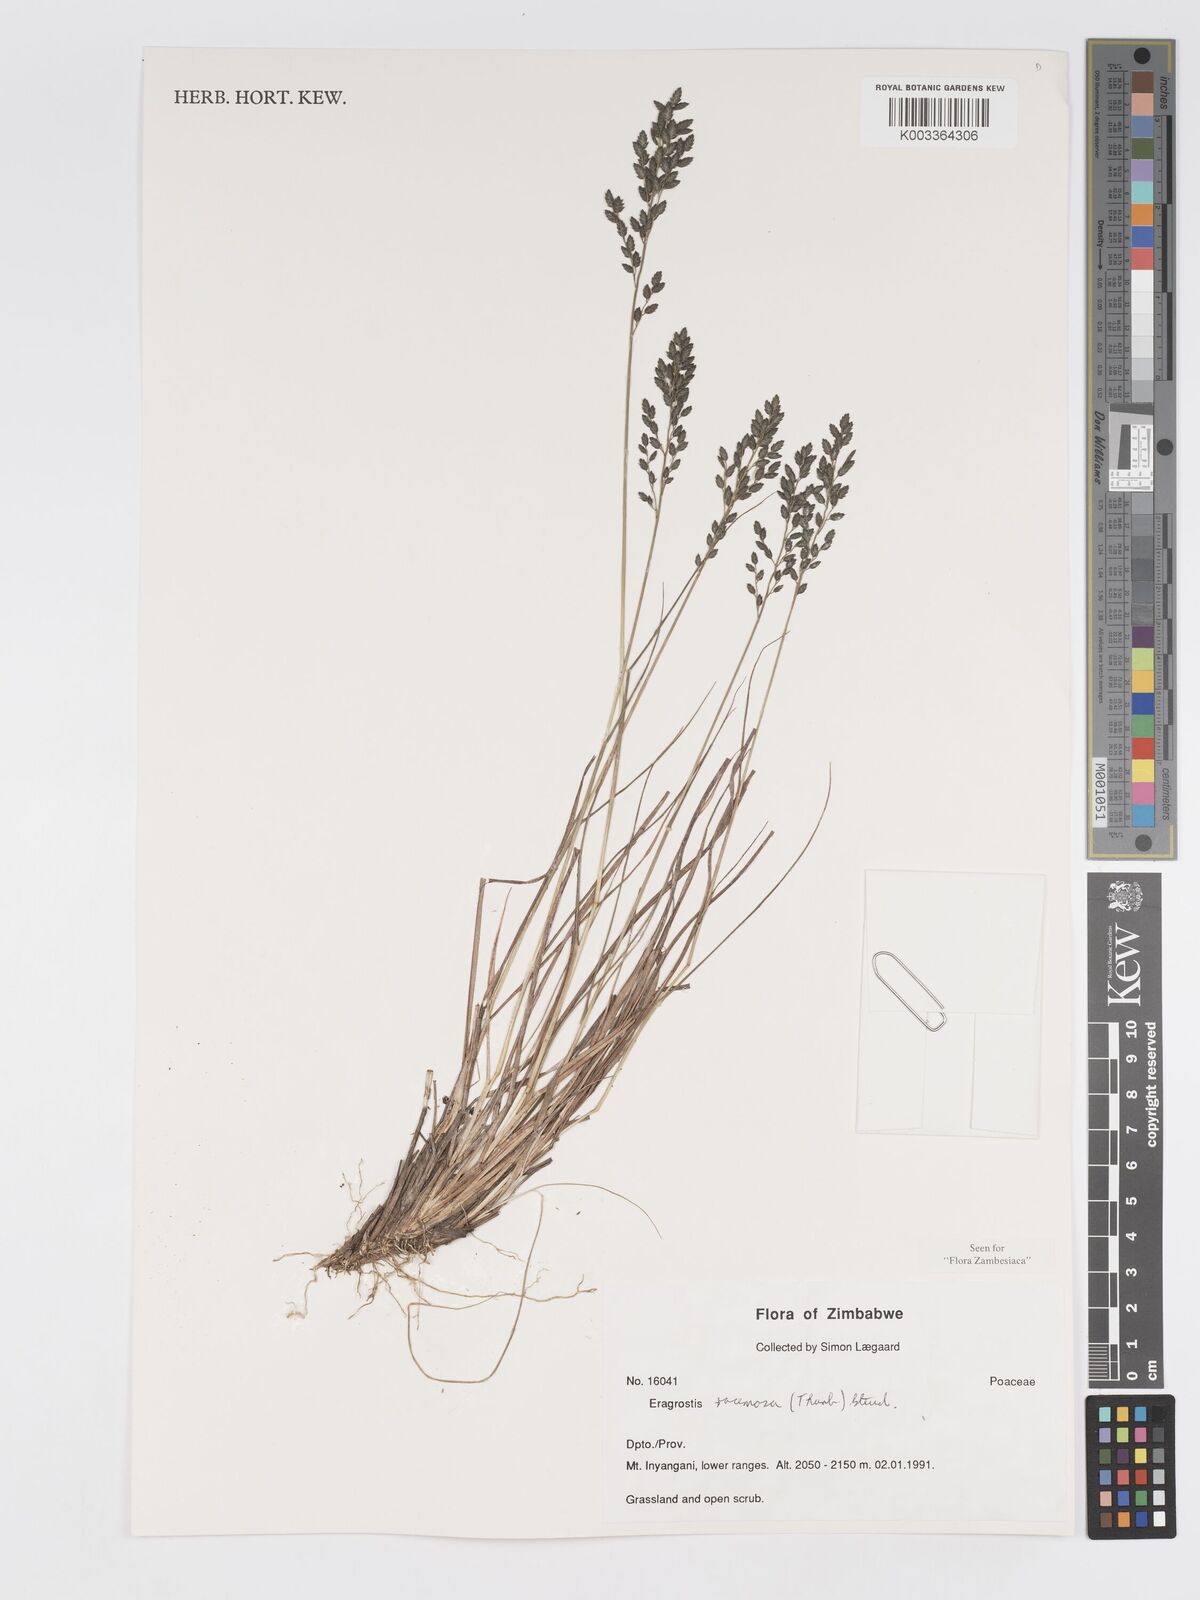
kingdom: Plantae
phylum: Tracheophyta
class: Liliopsida
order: Poales
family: Poaceae
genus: Eragrostis
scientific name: Eragrostis racemosa
